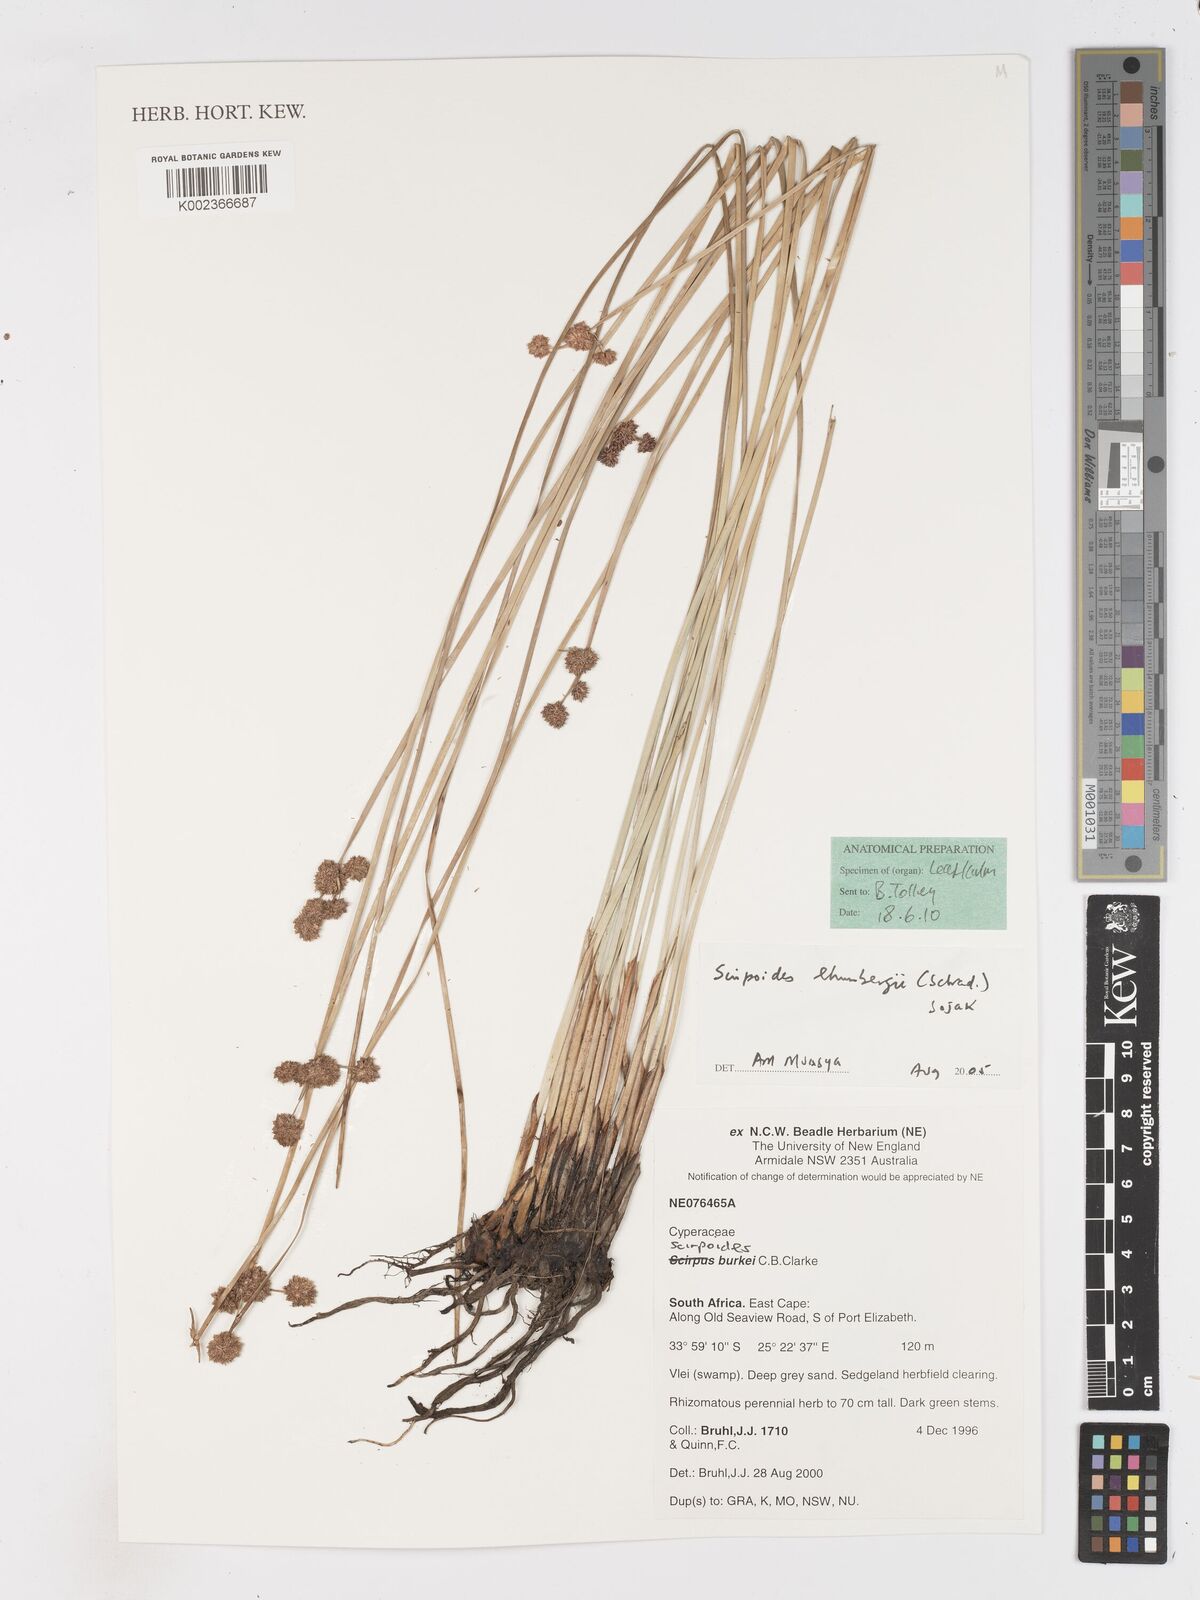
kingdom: Plantae
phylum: Tracheophyta
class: Liliopsida
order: Poales
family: Cyperaceae
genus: Scirpoides
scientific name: Scirpoides holoschoenus
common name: Round-headed club-rush
